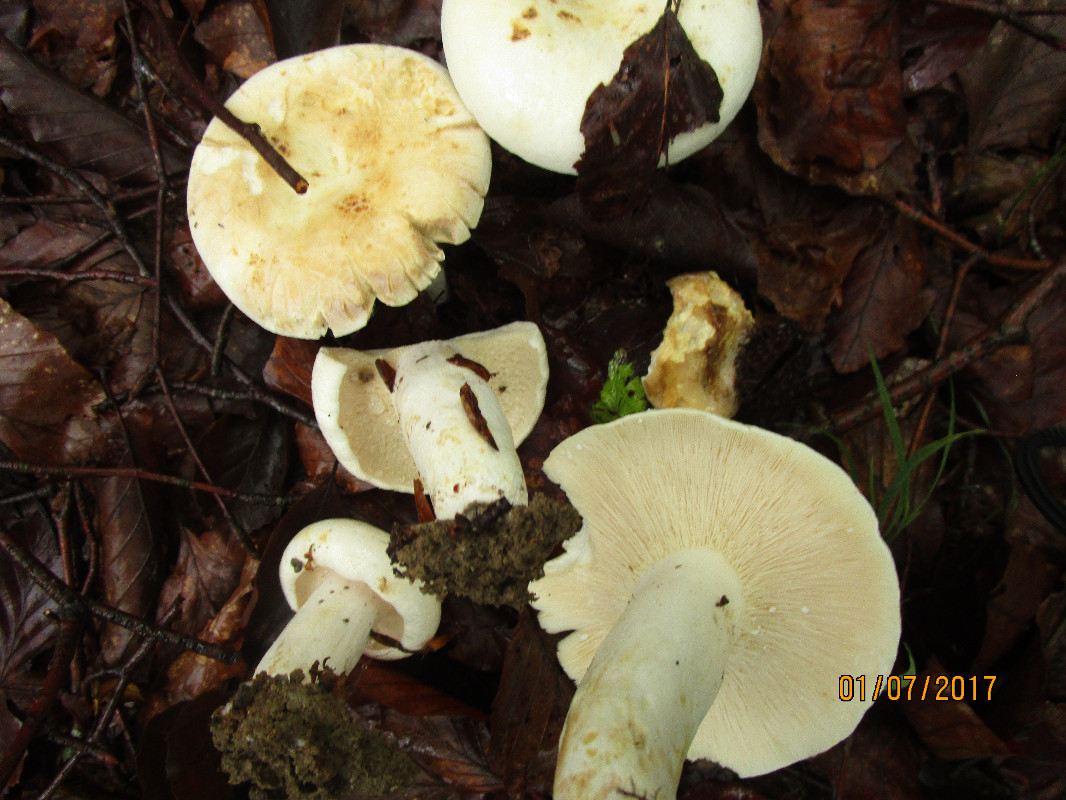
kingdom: Fungi
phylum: Basidiomycota
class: Agaricomycetes
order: Russulales
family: Russulaceae
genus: Lactifluus
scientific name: Lactifluus piperatus
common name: peber-mælkehat
